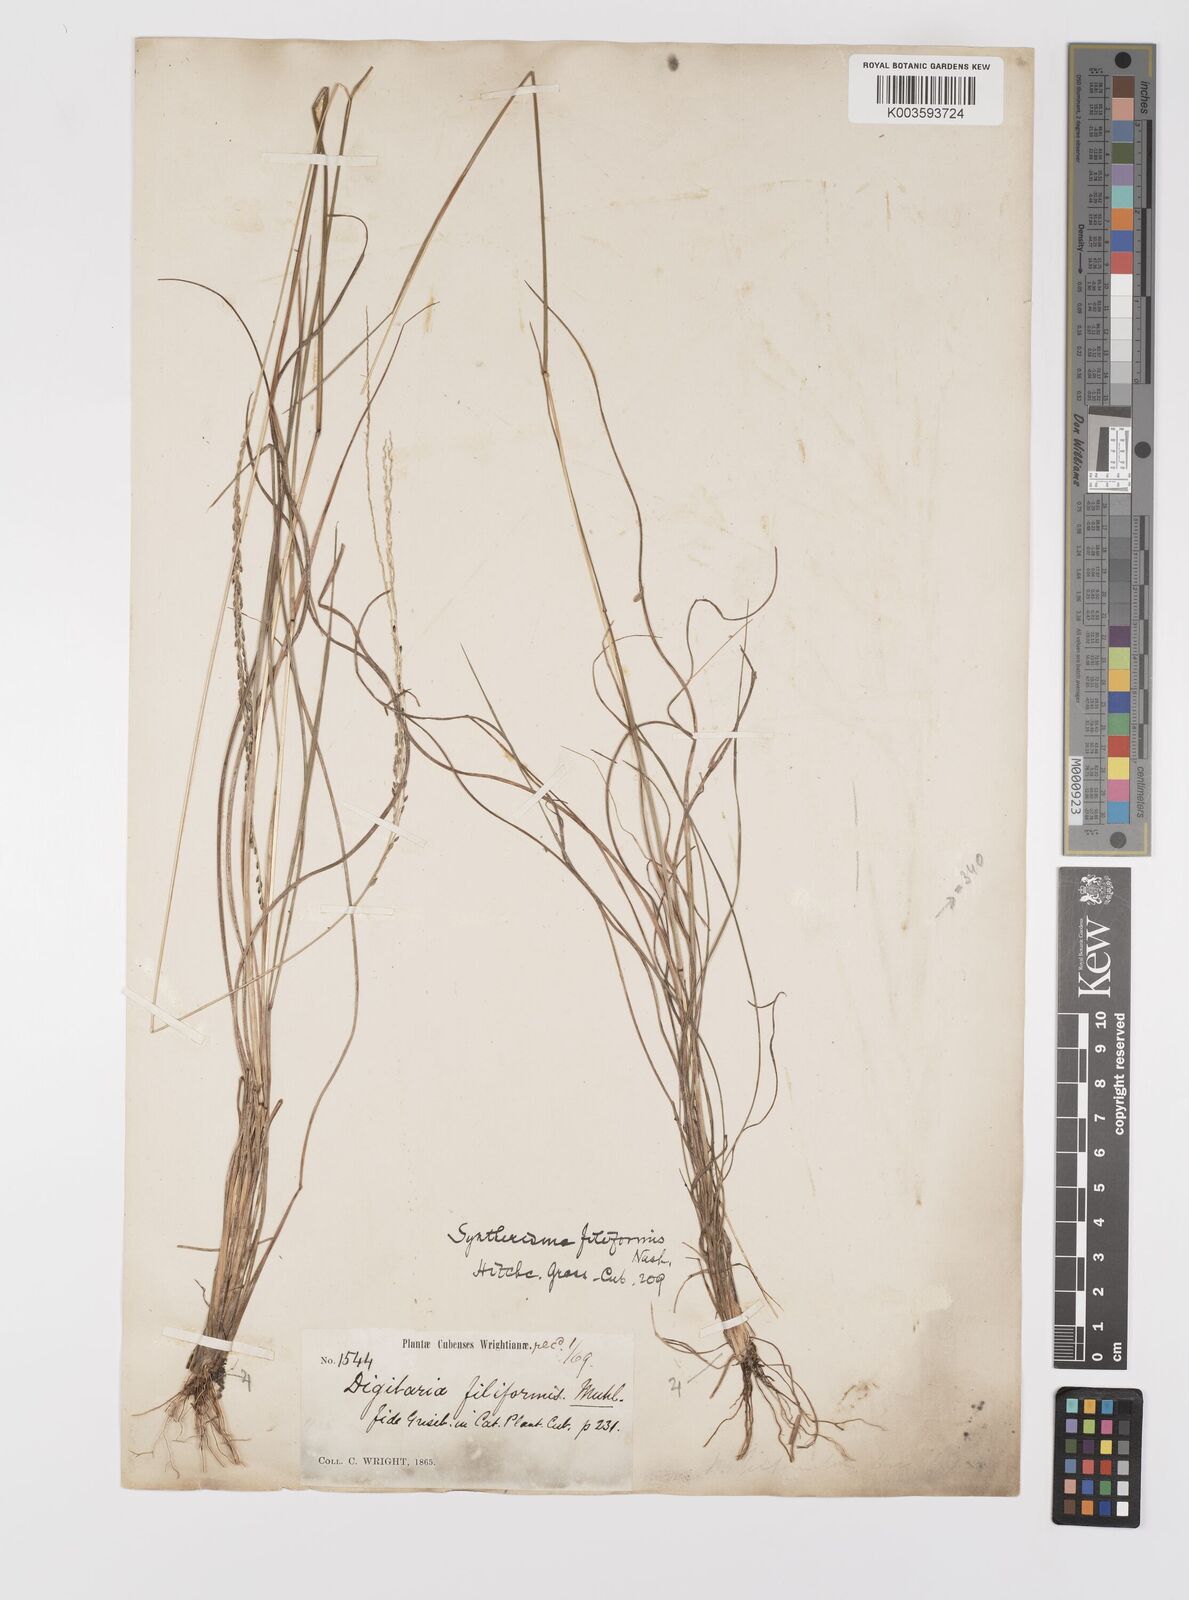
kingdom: Plantae
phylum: Tracheophyta
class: Liliopsida
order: Poales
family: Poaceae
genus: Digitaria
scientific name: Digitaria villosa
